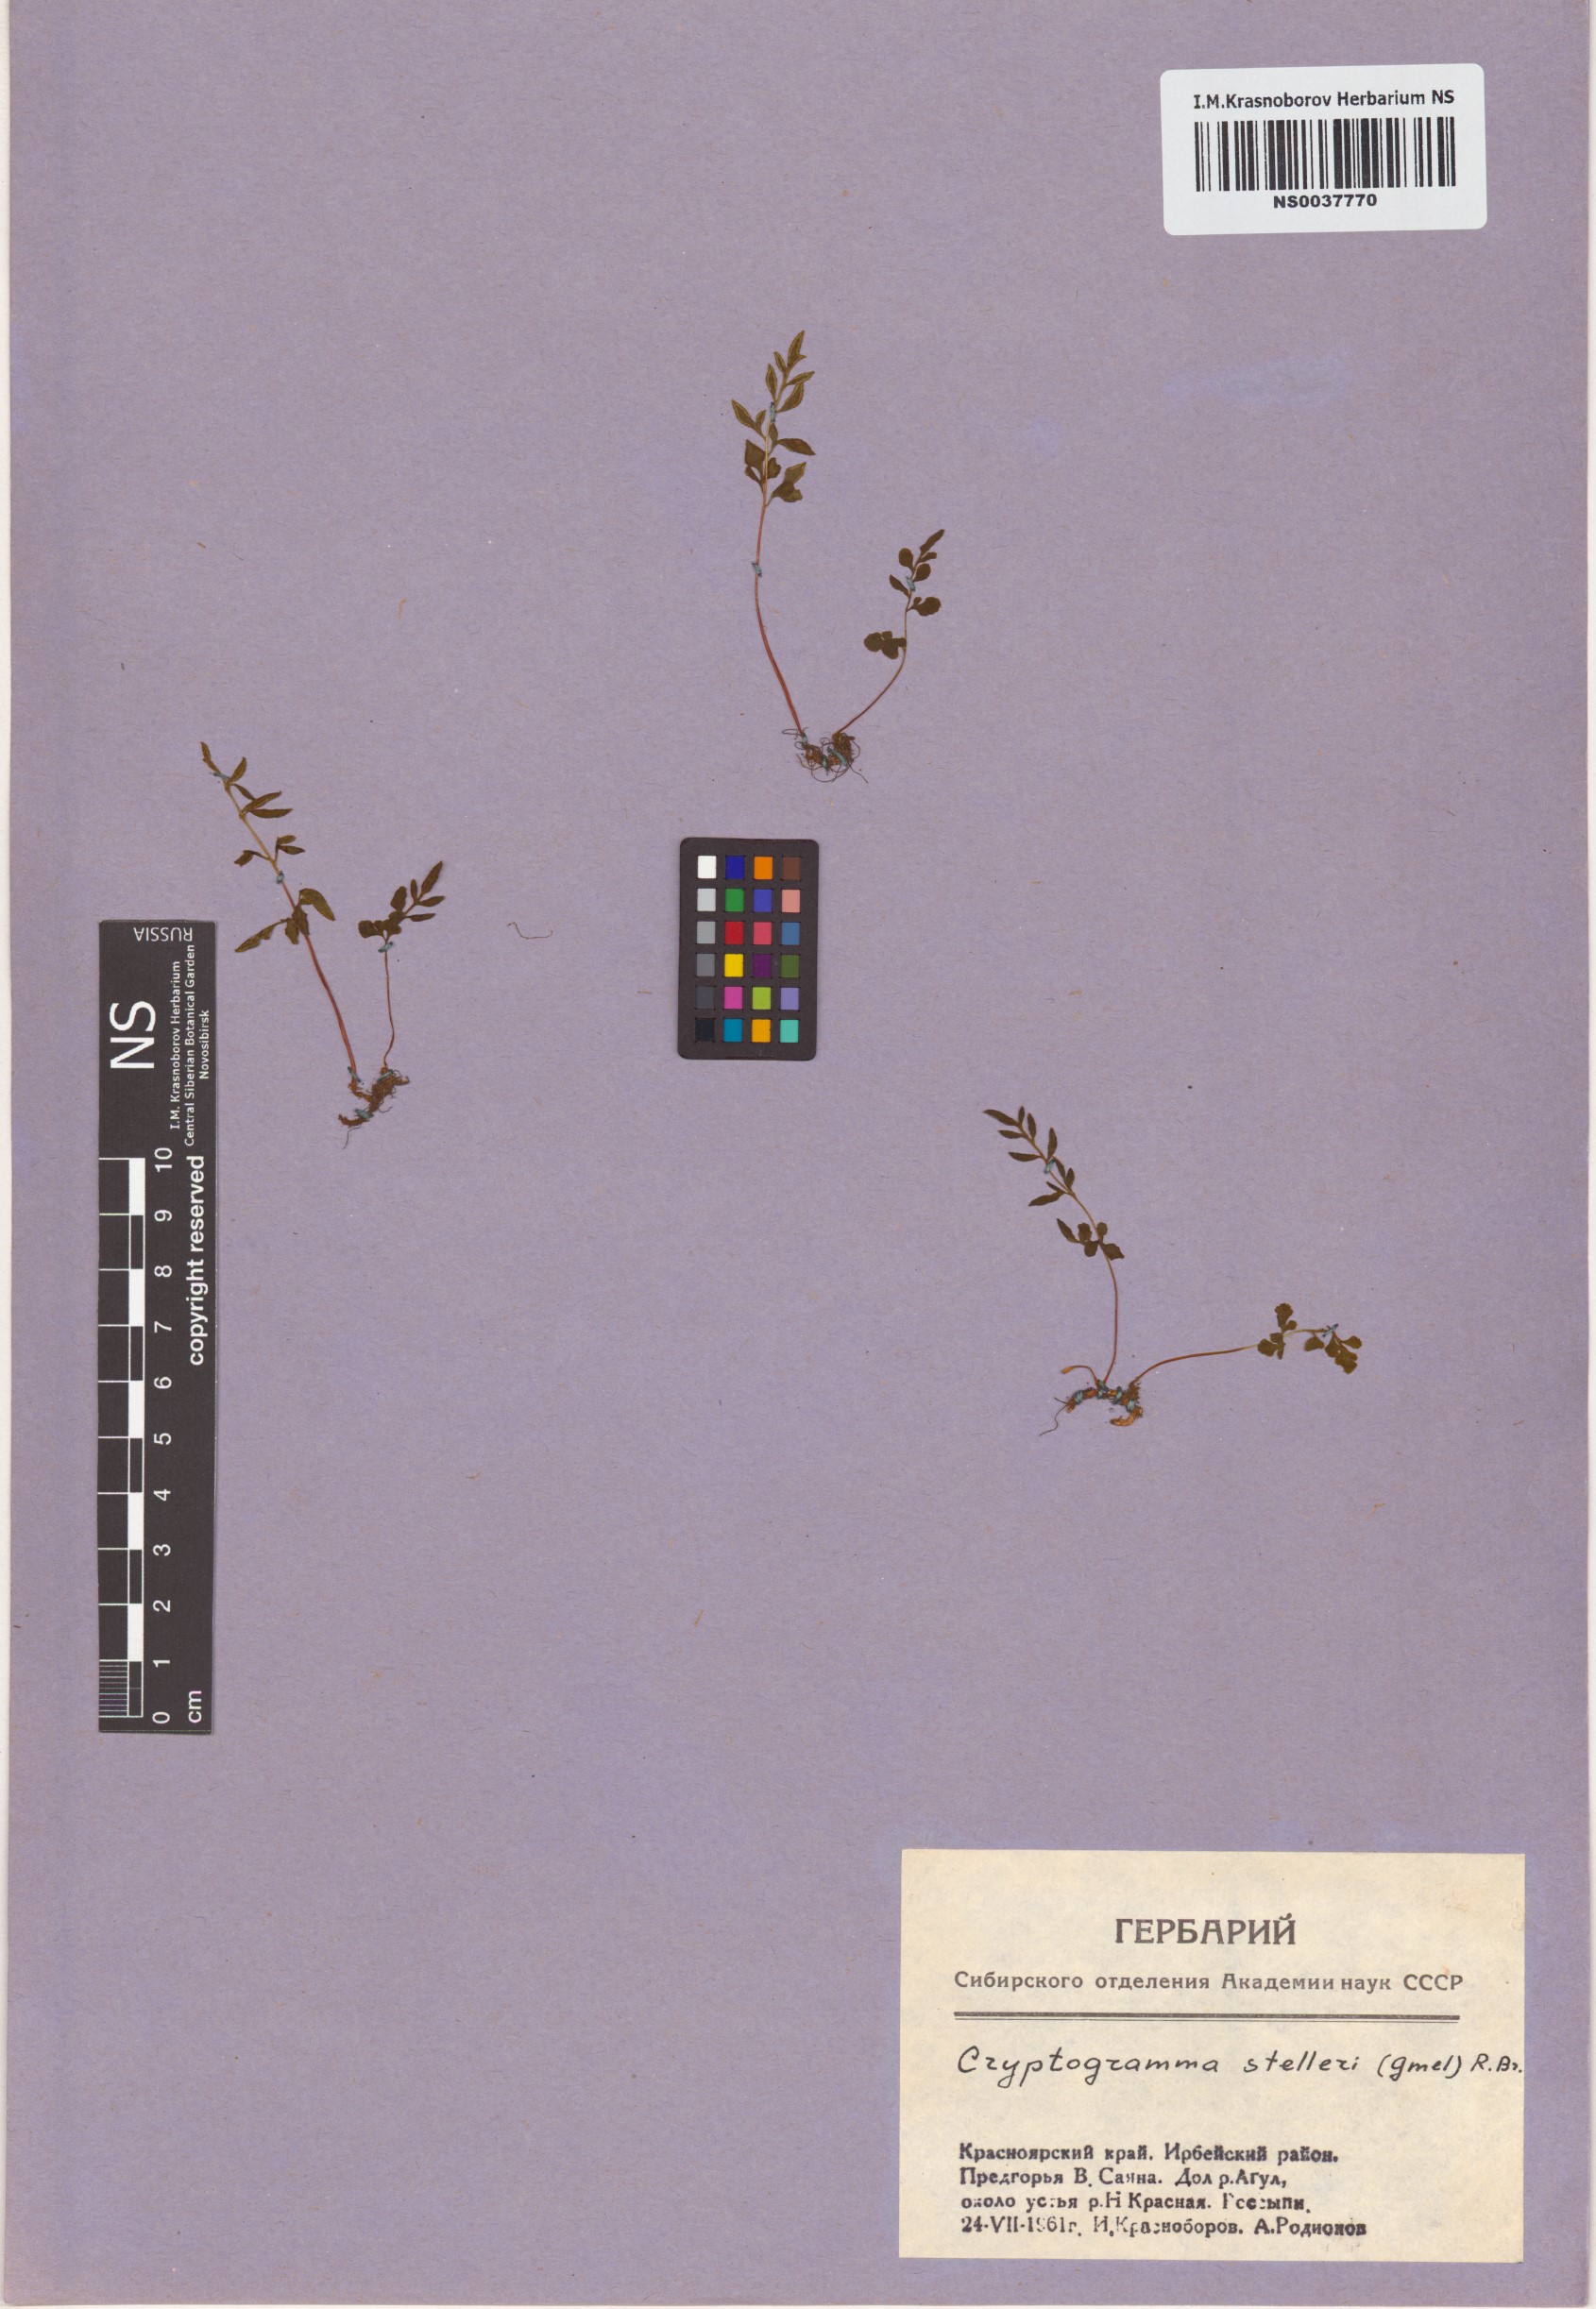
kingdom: Plantae
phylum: Tracheophyta
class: Polypodiopsida
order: Polypodiales
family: Pteridaceae
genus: Cryptogramma
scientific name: Cryptogramma stelleri
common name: Cliff-brake
